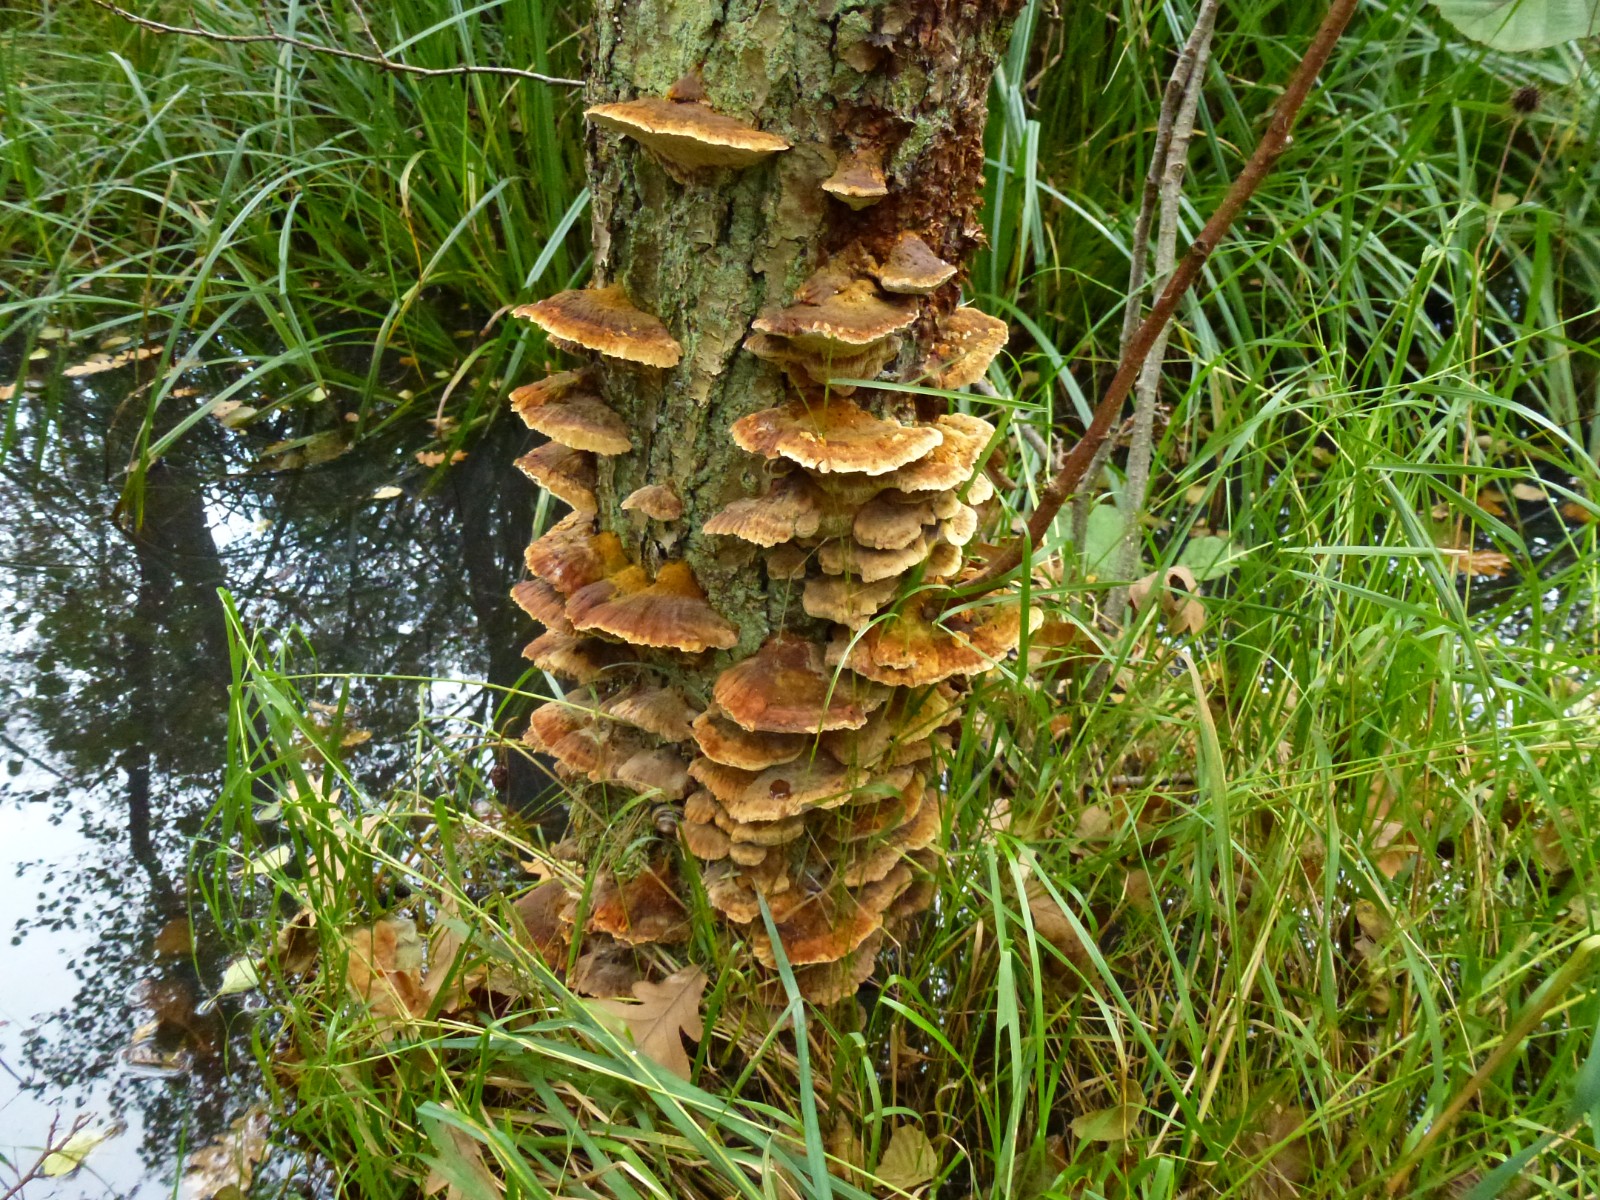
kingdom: Fungi
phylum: Basidiomycota
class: Agaricomycetes
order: Hymenochaetales
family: Hymenochaetaceae
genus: Xanthoporia
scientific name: Xanthoporia radiata
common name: elle-spejlporesvamp
